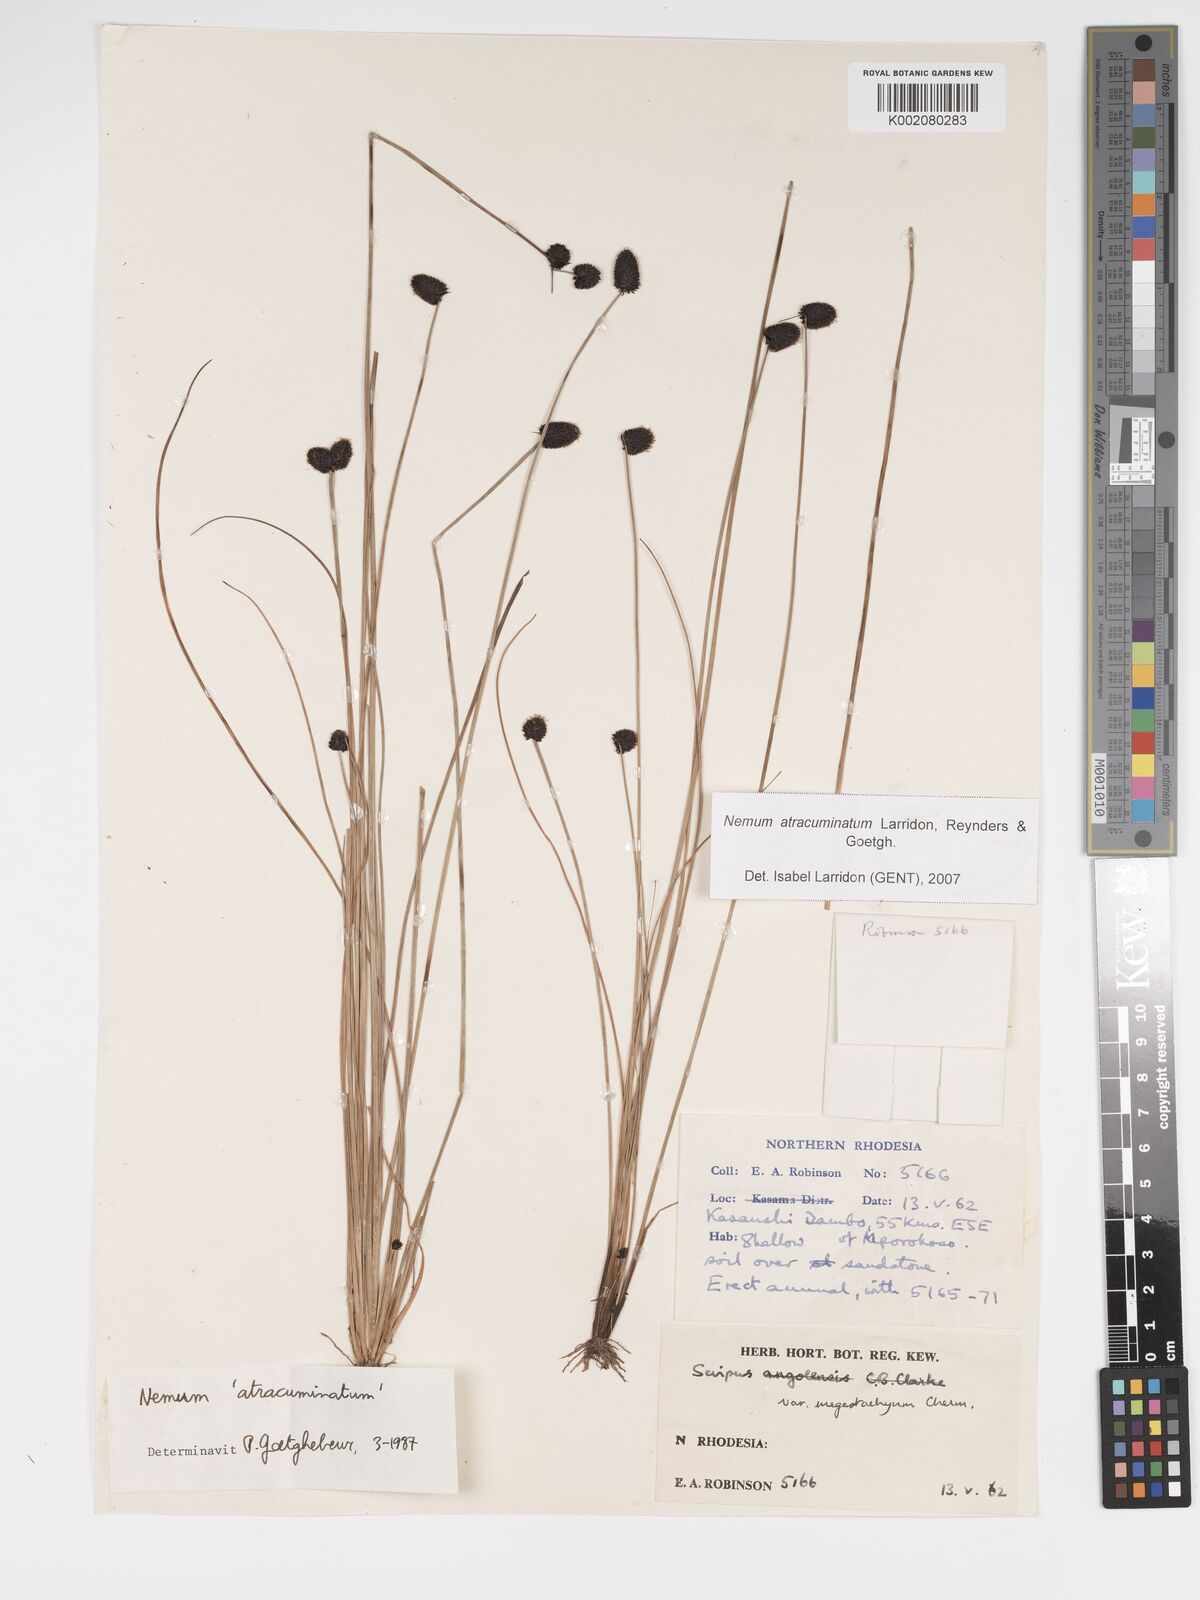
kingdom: Plantae
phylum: Tracheophyta
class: Liliopsida
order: Poales
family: Cyperaceae
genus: Bulbostylis
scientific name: Bulbostylis atracuminata
